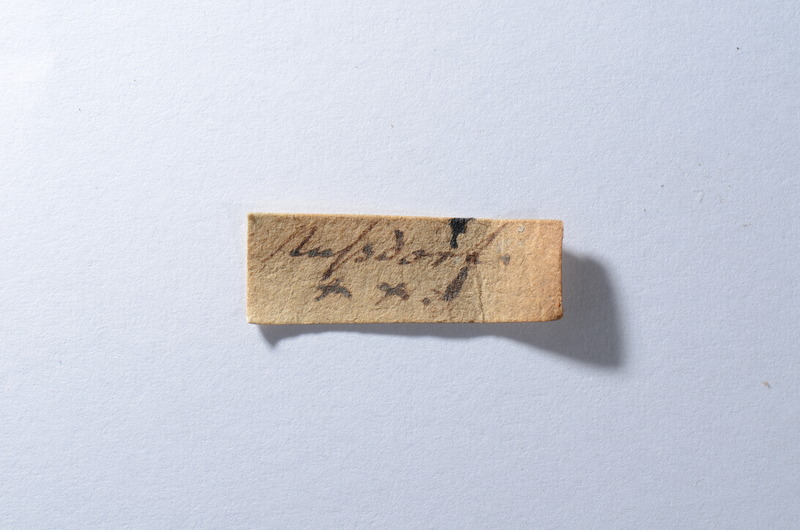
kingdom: Animalia
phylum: Chordata
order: Cypriniformes
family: Cyprinidae
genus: Capitodus
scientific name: Capitodus
